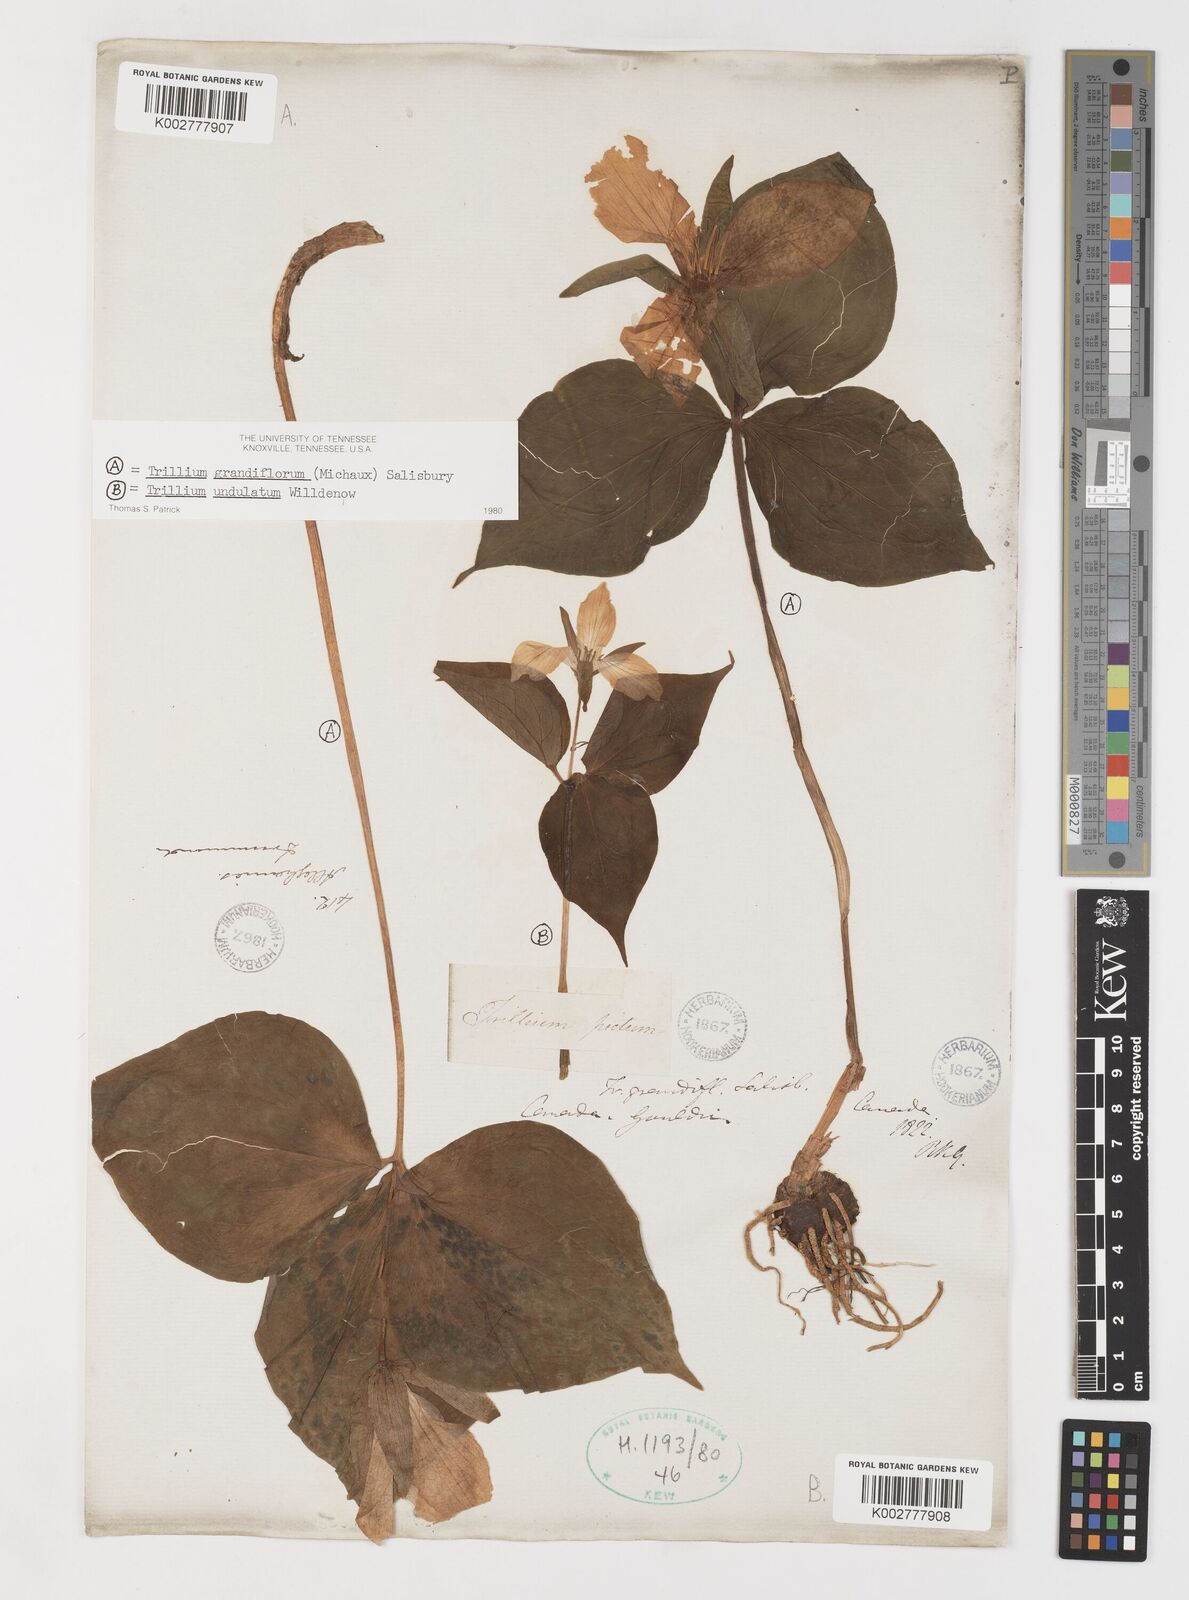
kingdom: Plantae
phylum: Tracheophyta
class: Liliopsida
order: Liliales
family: Melanthiaceae
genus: Trillium
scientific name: Trillium grandiflorum
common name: Great white trillium
